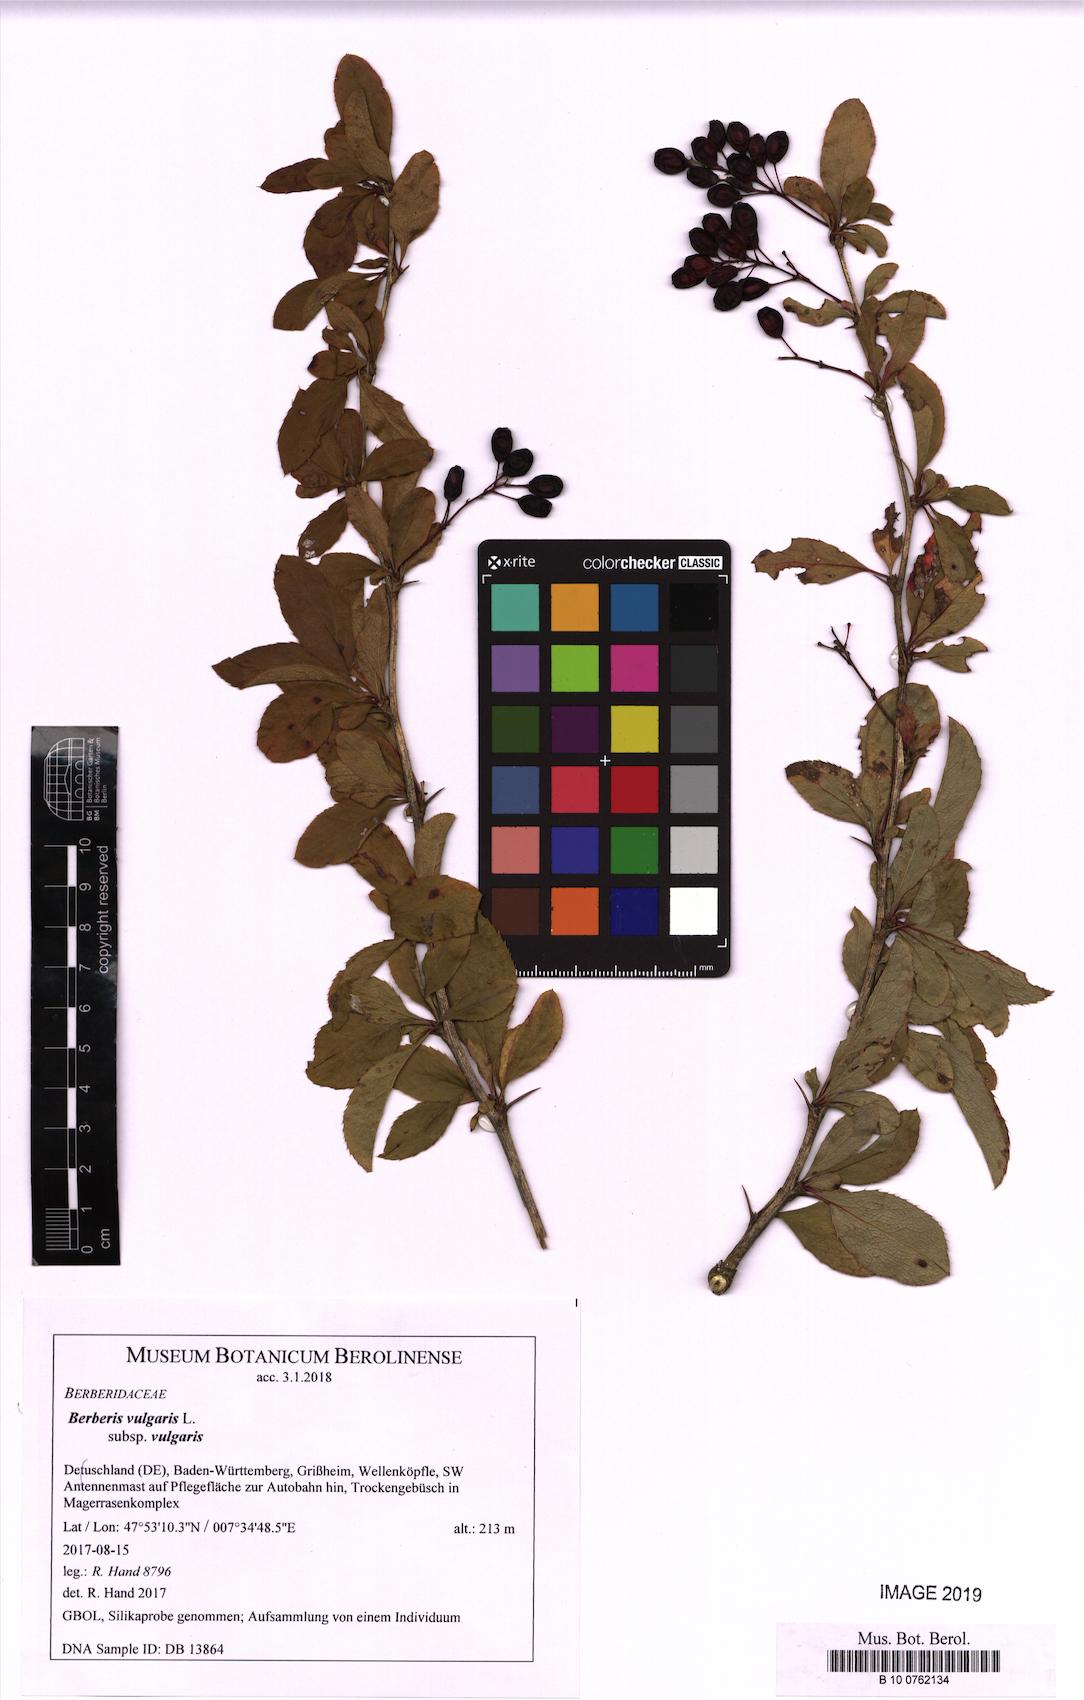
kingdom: Plantae
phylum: Tracheophyta
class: Magnoliopsida
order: Ranunculales
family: Berberidaceae
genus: Berberis
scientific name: Berberis vulgaris
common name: Barberry
